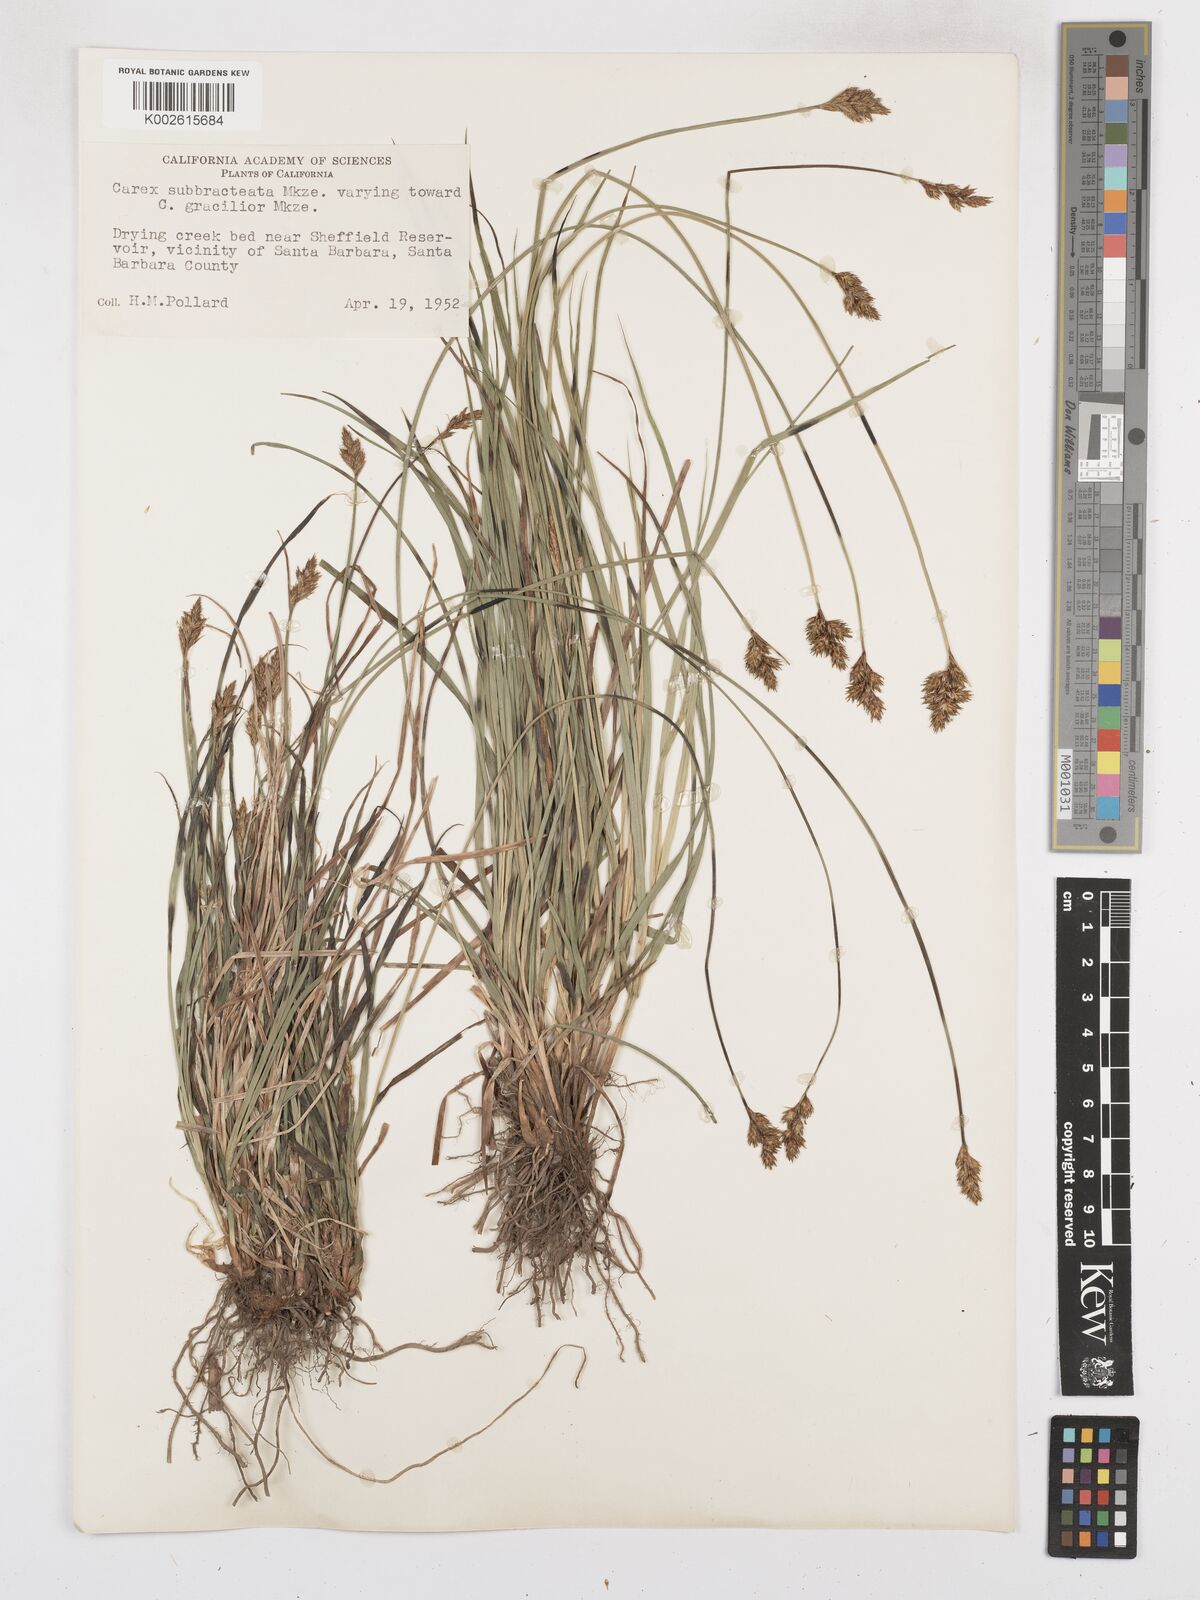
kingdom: Plantae
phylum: Tracheophyta
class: Liliopsida
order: Poales
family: Cyperaceae
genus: Carex
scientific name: Carex subbracteata
